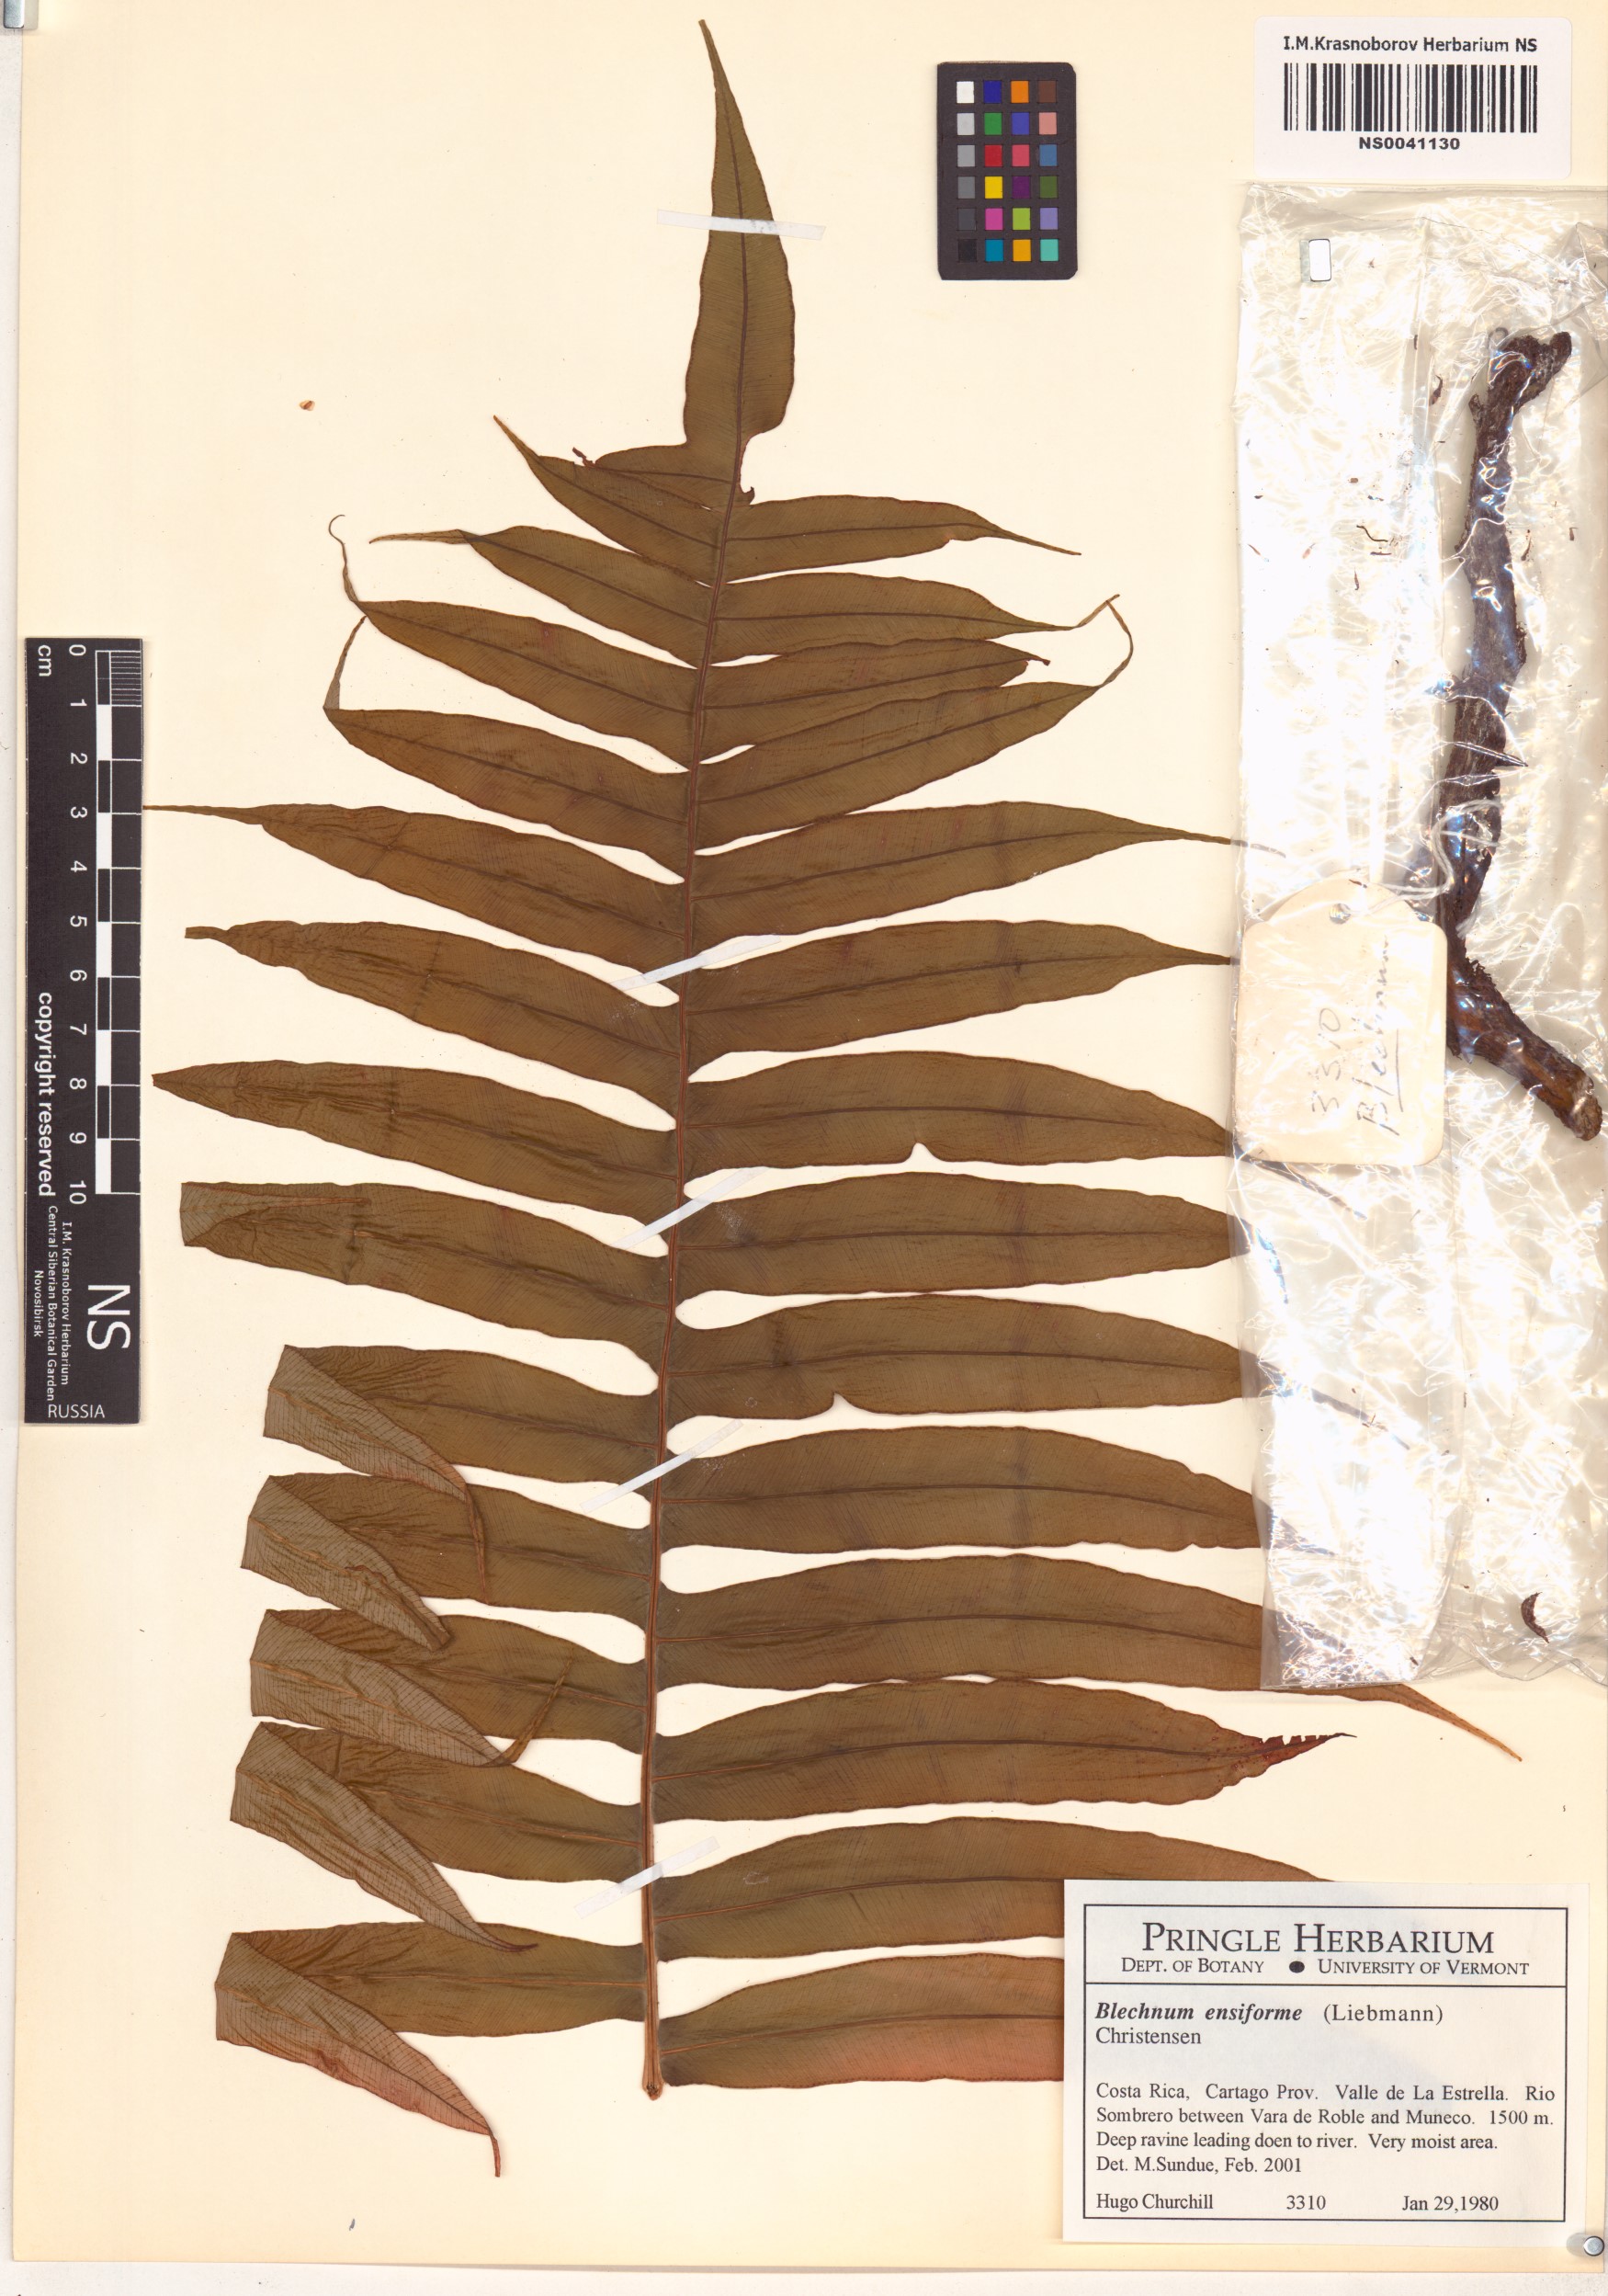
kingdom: Plantae
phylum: Tracheophyta
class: Polypodiopsida
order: Polypodiales
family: Blechnaceae
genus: Lomaridium
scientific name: Lomaridium ensiforme
